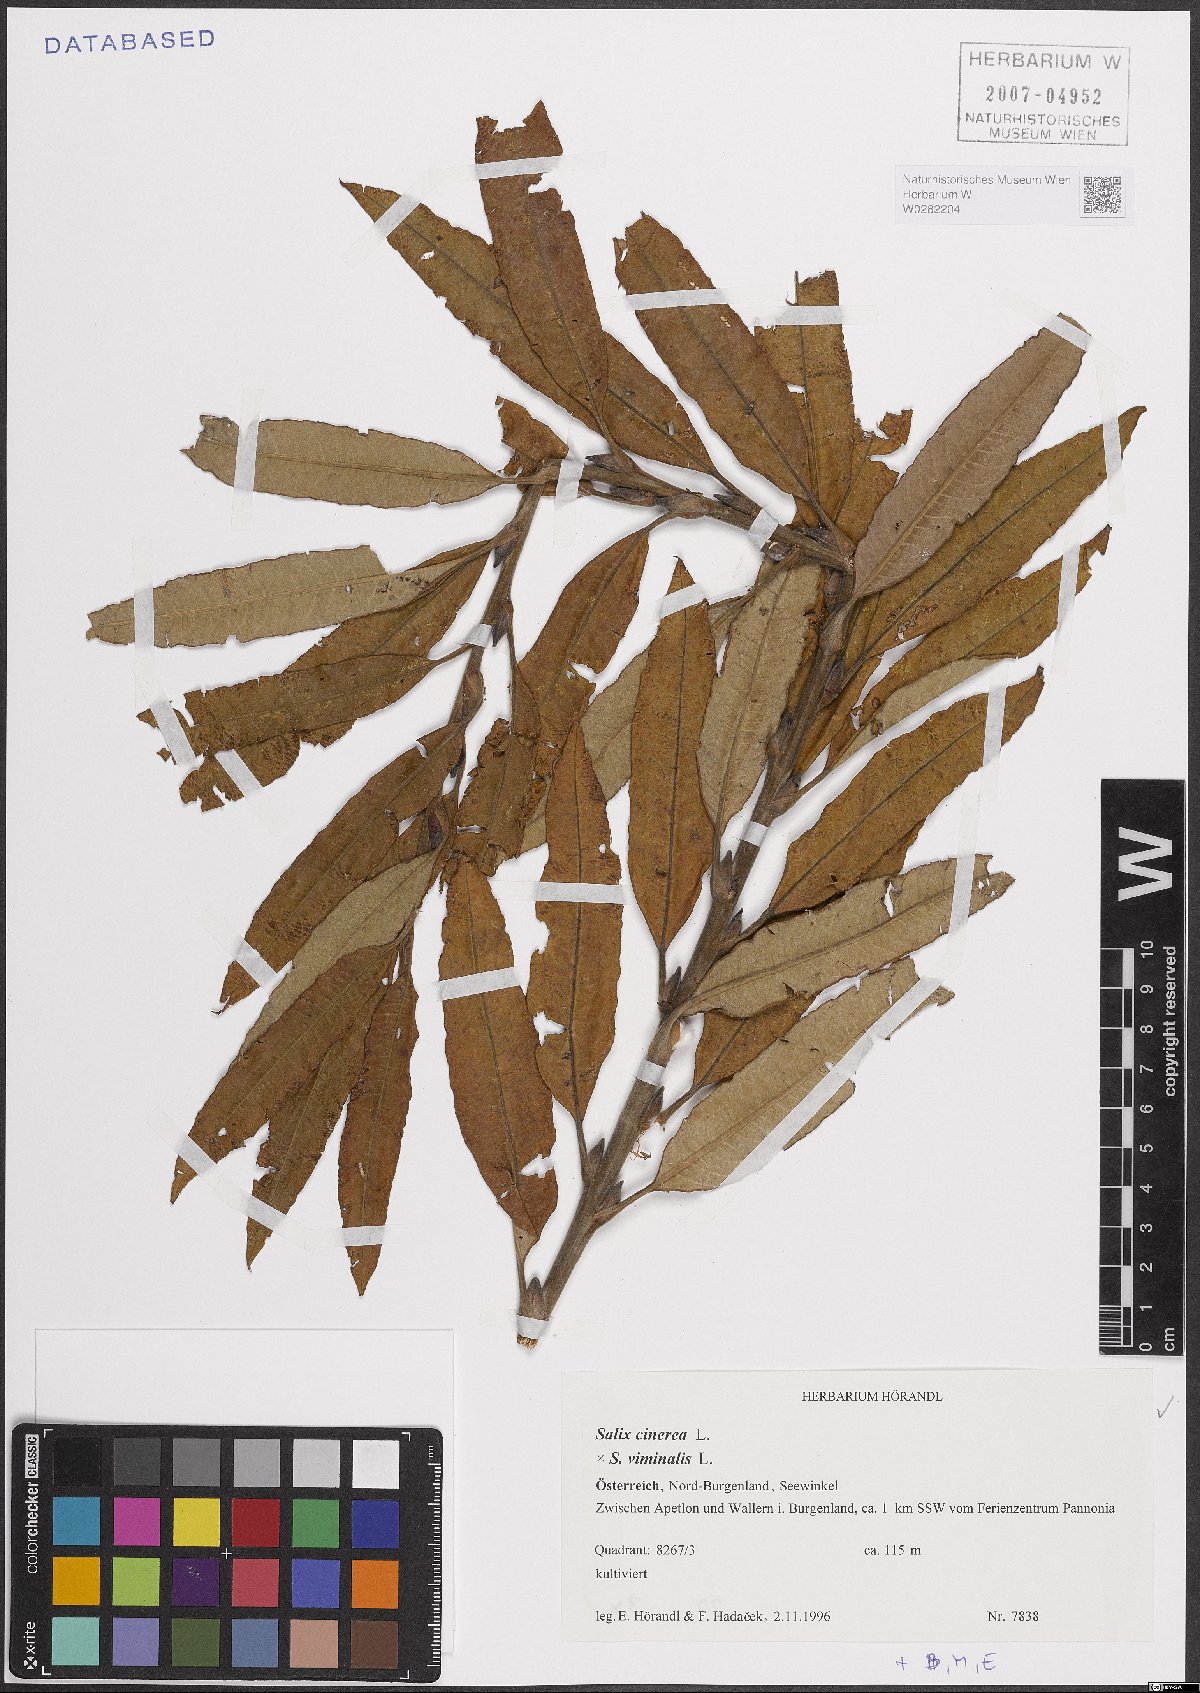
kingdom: Plantae
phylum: Tracheophyta
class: Magnoliopsida
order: Malpighiales
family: Salicaceae
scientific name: Salicaceae
